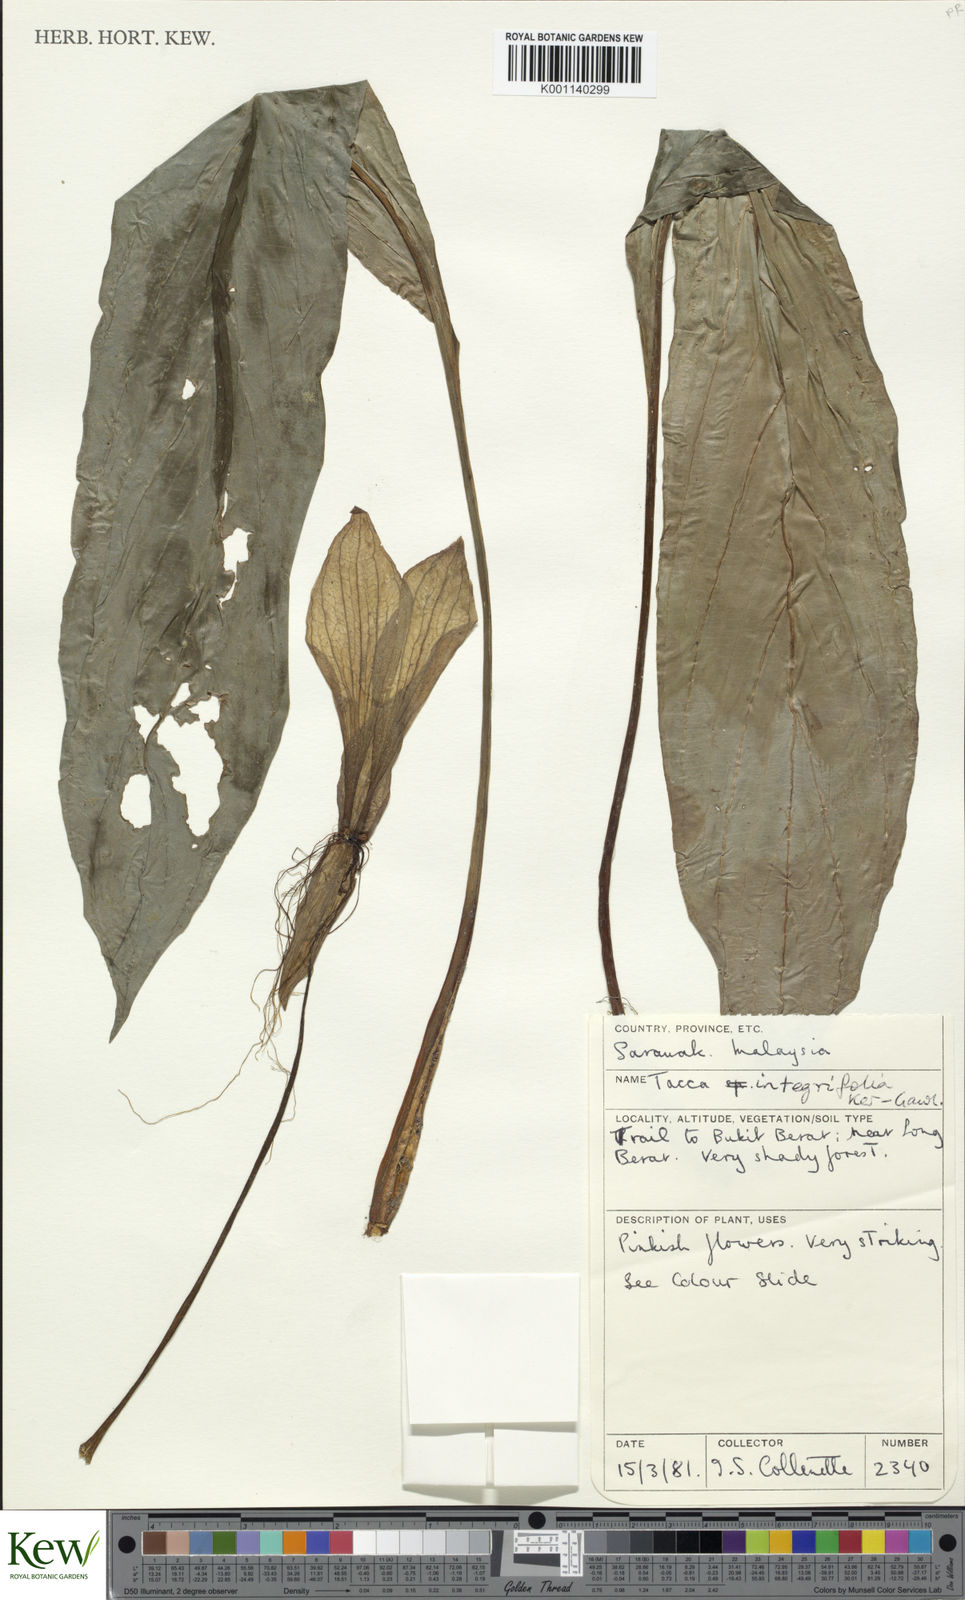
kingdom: Plantae
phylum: Tracheophyta
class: Liliopsida
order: Dioscoreales
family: Dioscoreaceae
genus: Tacca
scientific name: Tacca integrifolia
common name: Batplant
